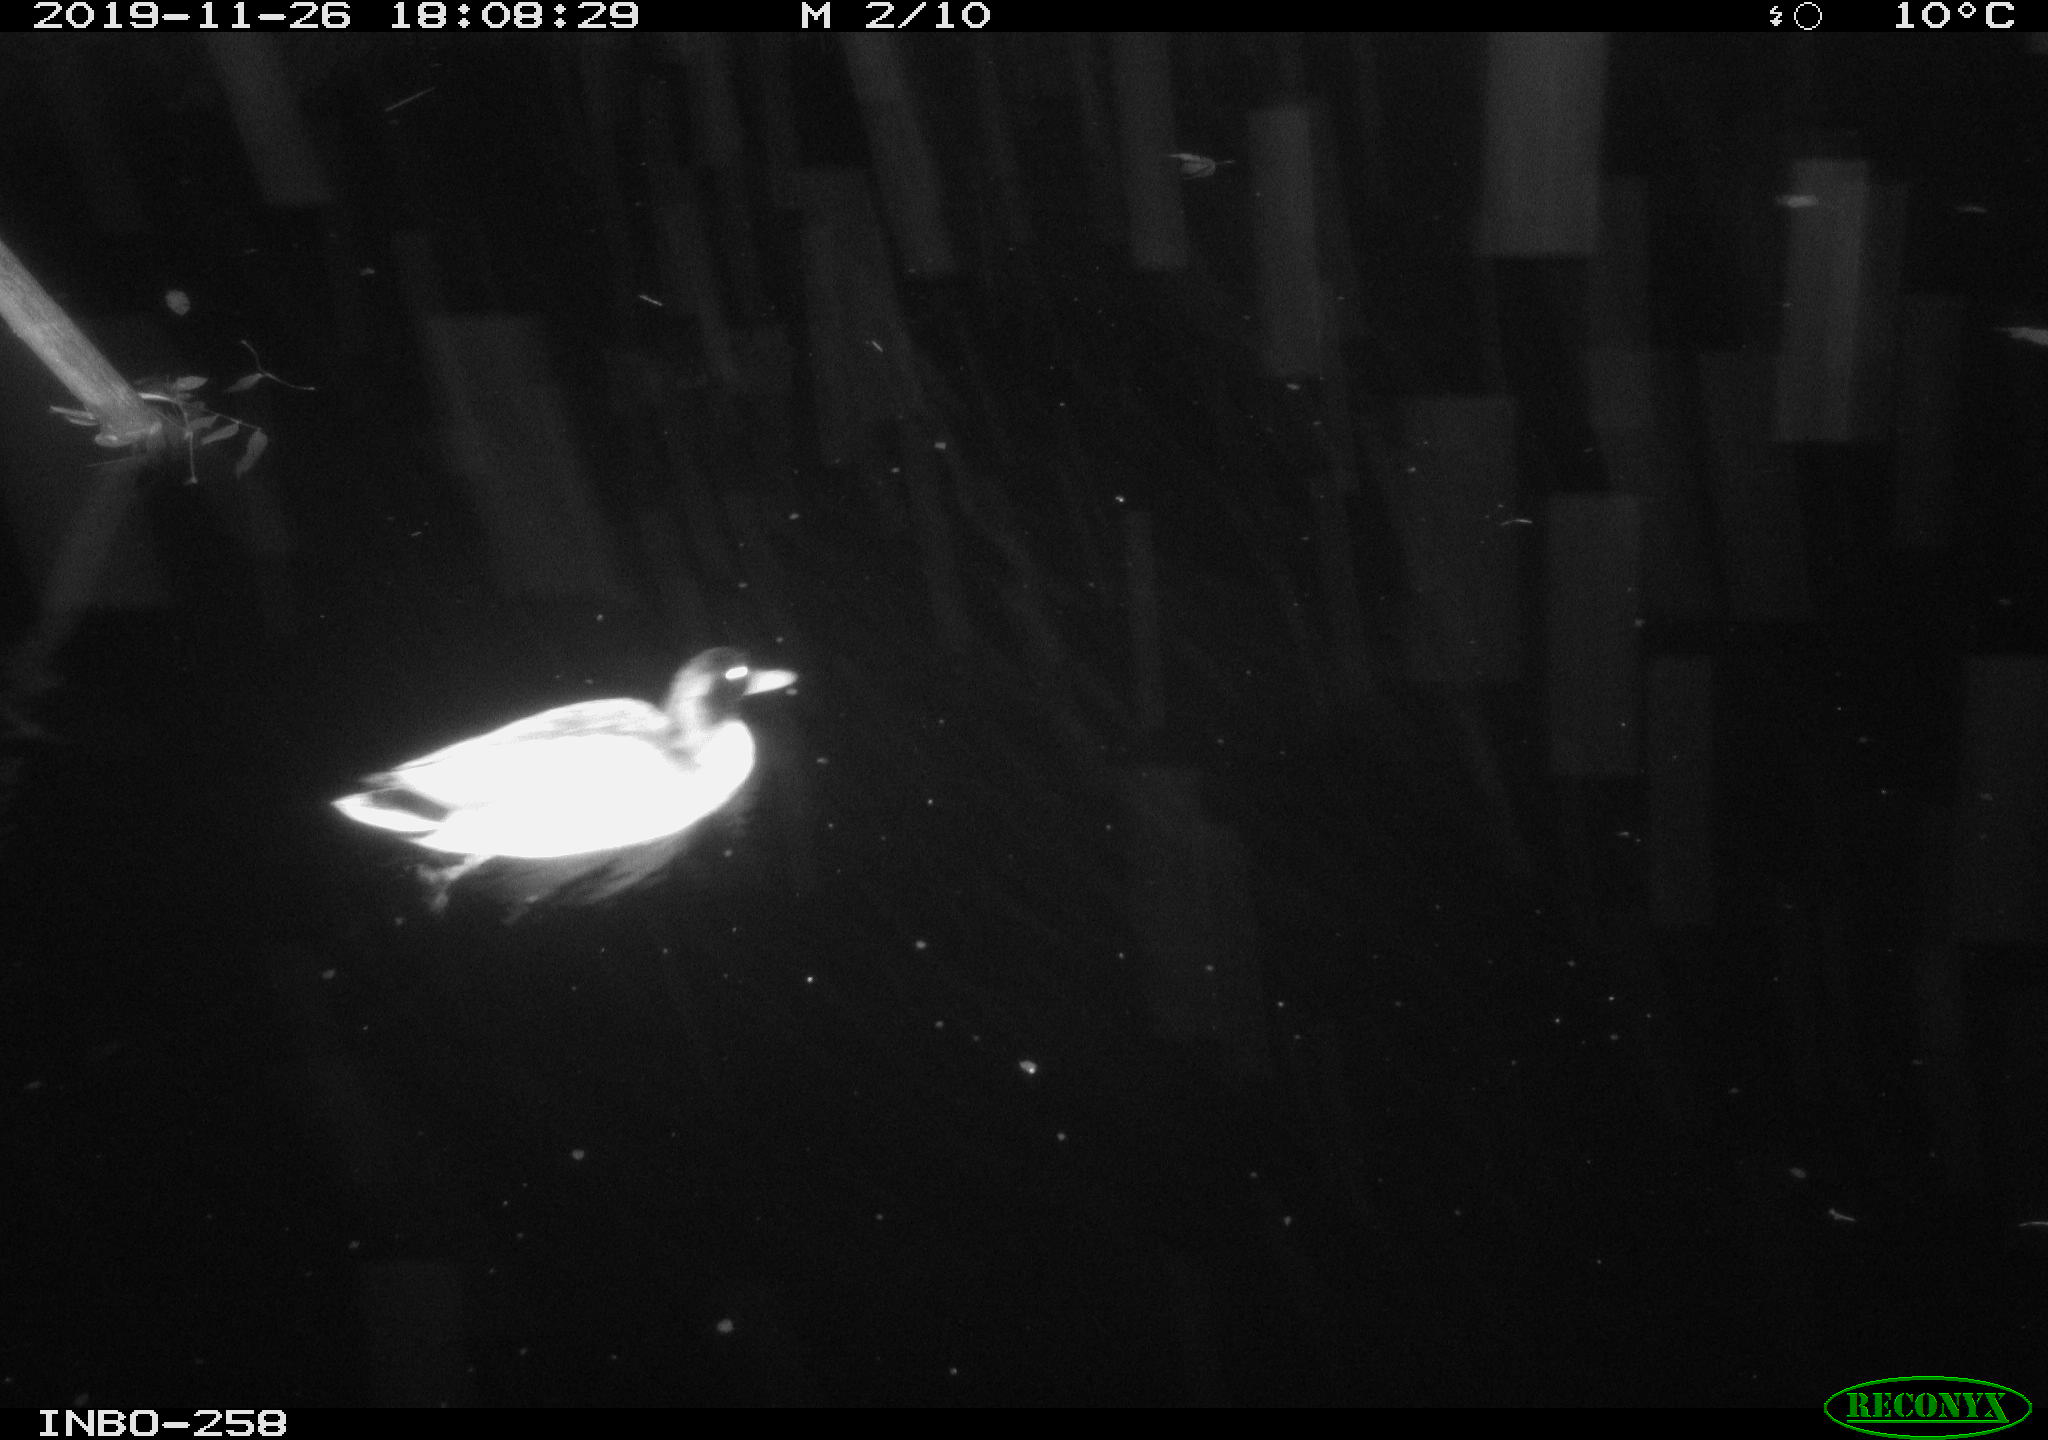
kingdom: Animalia
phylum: Chordata
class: Aves
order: Anseriformes
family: Anatidae
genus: Anas
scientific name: Anas platyrhynchos
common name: Mallard
